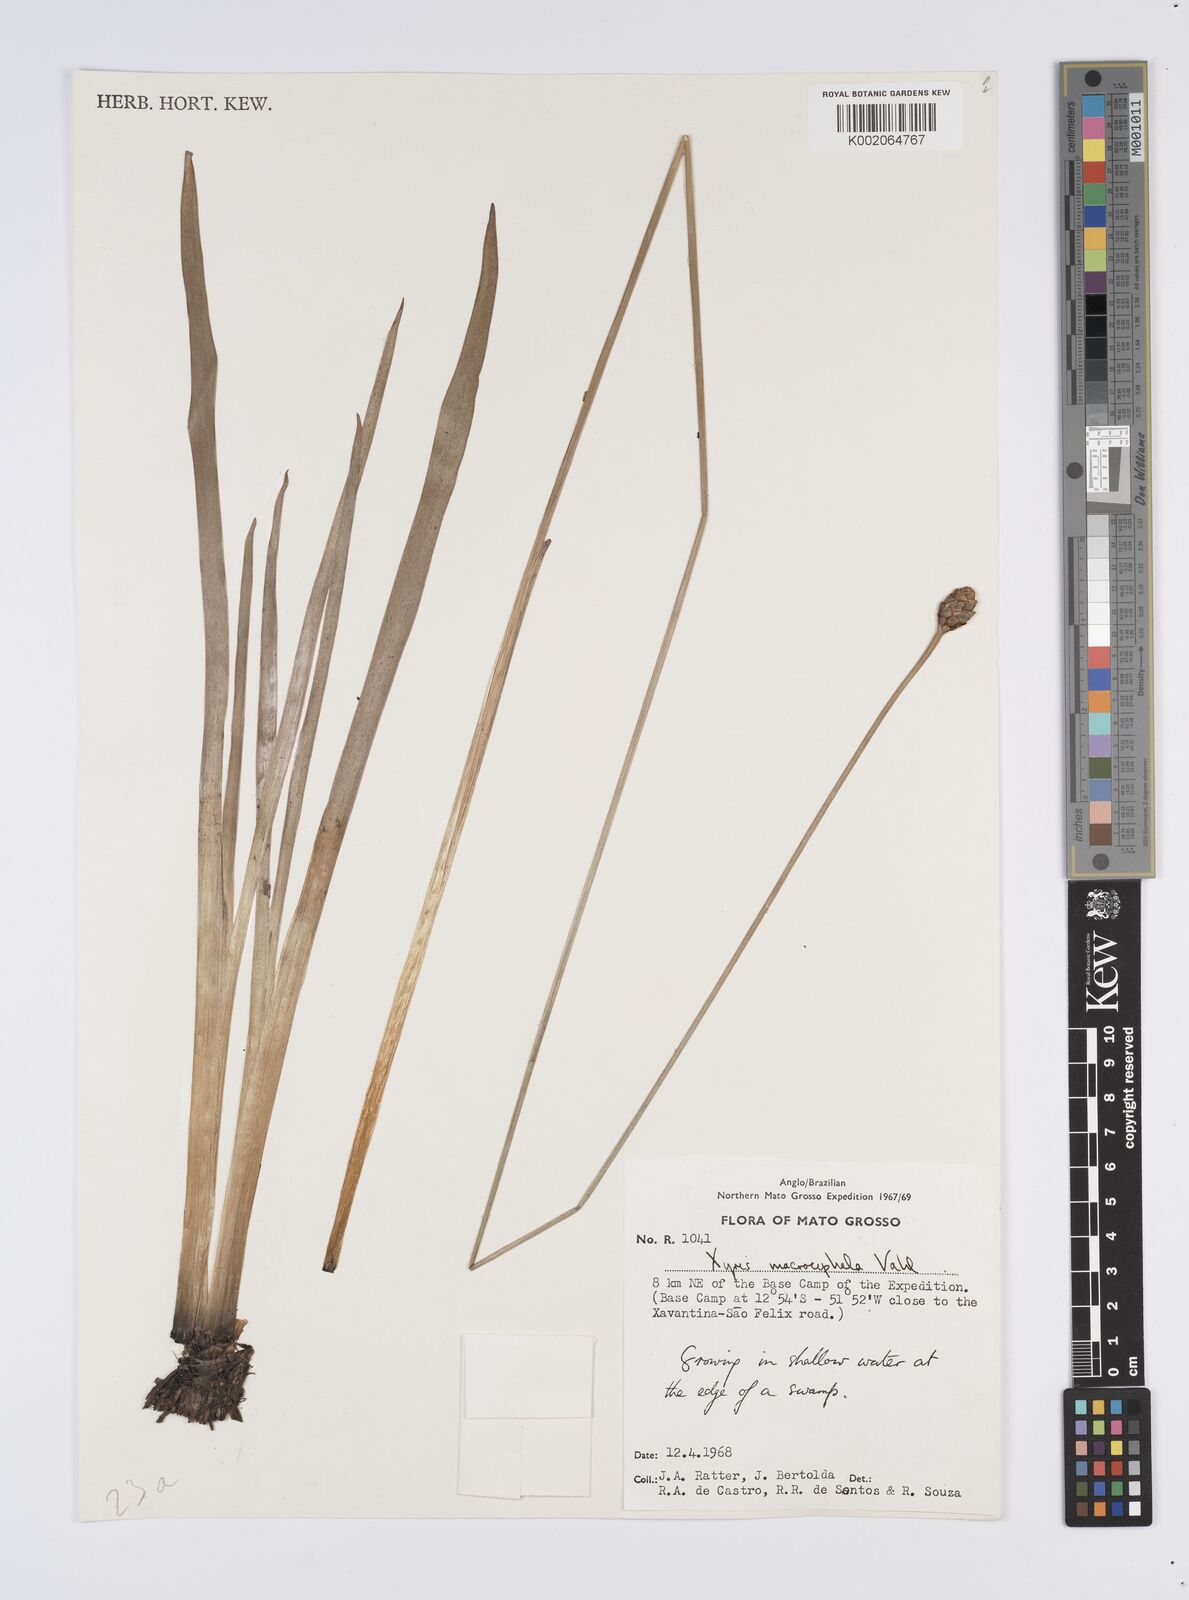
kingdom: Plantae
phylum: Tracheophyta
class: Liliopsida
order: Poales
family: Xyridaceae
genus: Xyris
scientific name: Xyris jupicai
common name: Richard's yelloweyed grass
